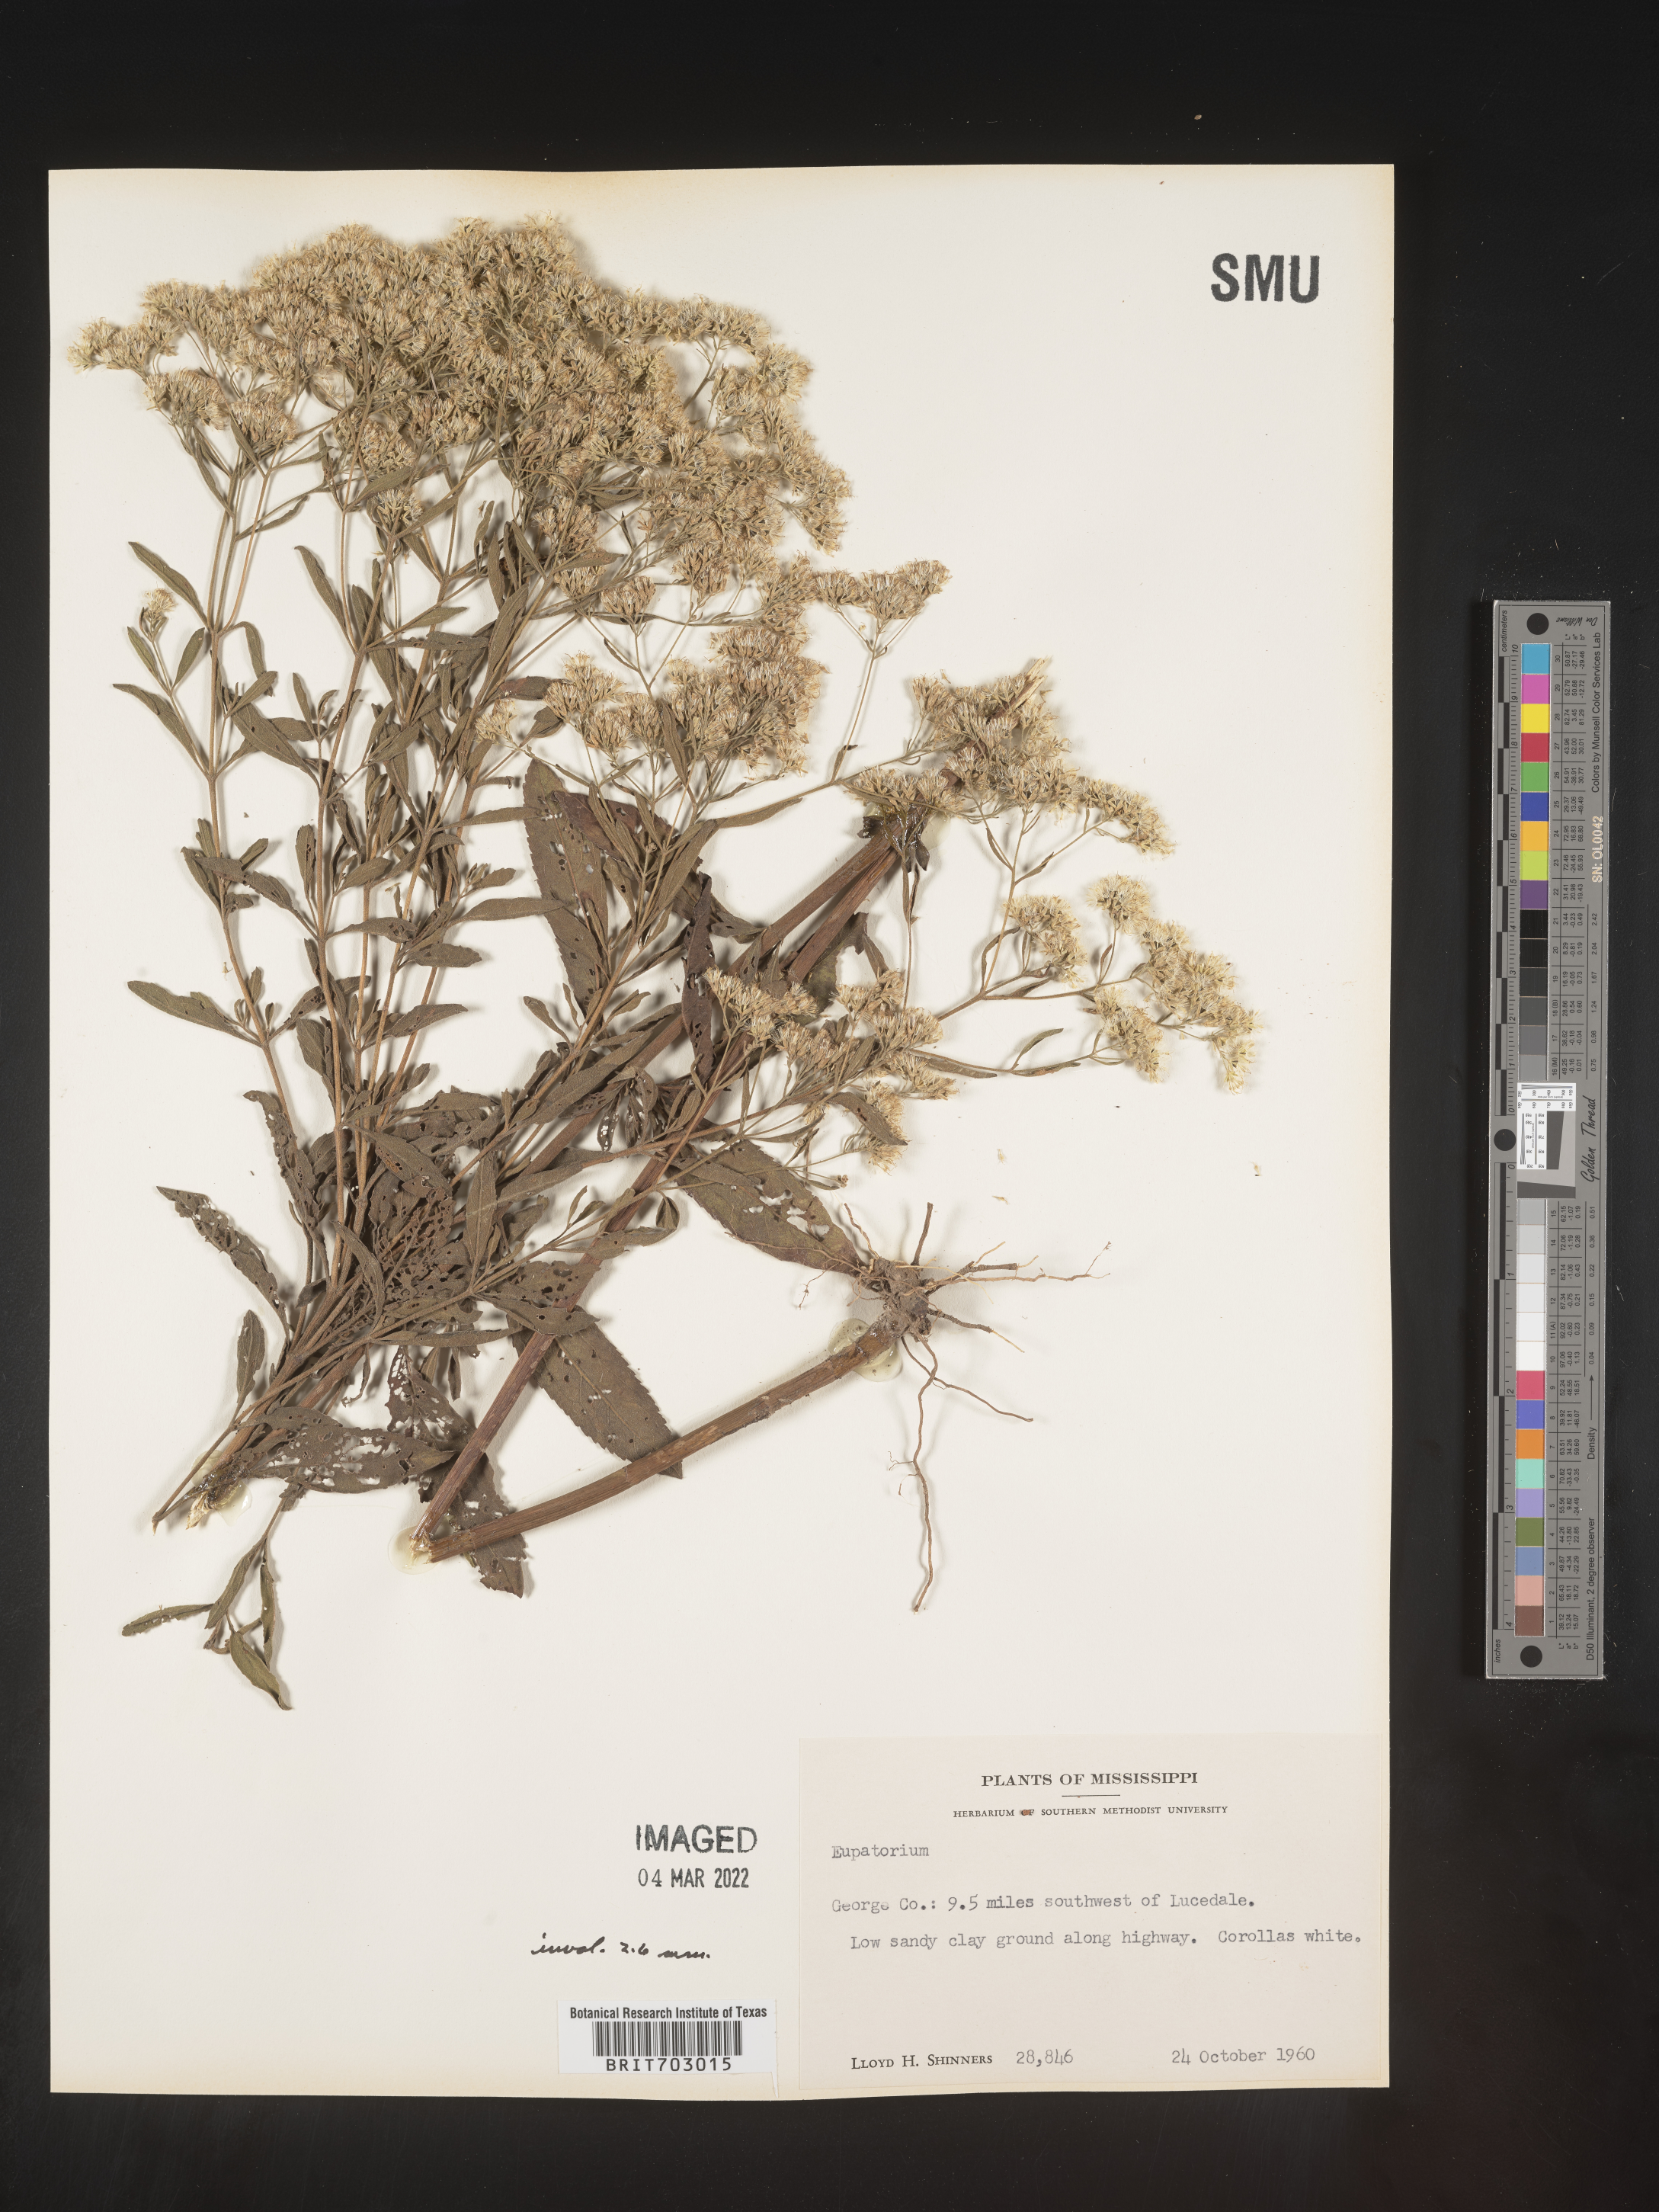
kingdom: Plantae
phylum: Tracheophyta
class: Magnoliopsida
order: Asterales
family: Asteraceae
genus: Eupatorium
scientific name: Eupatorium
